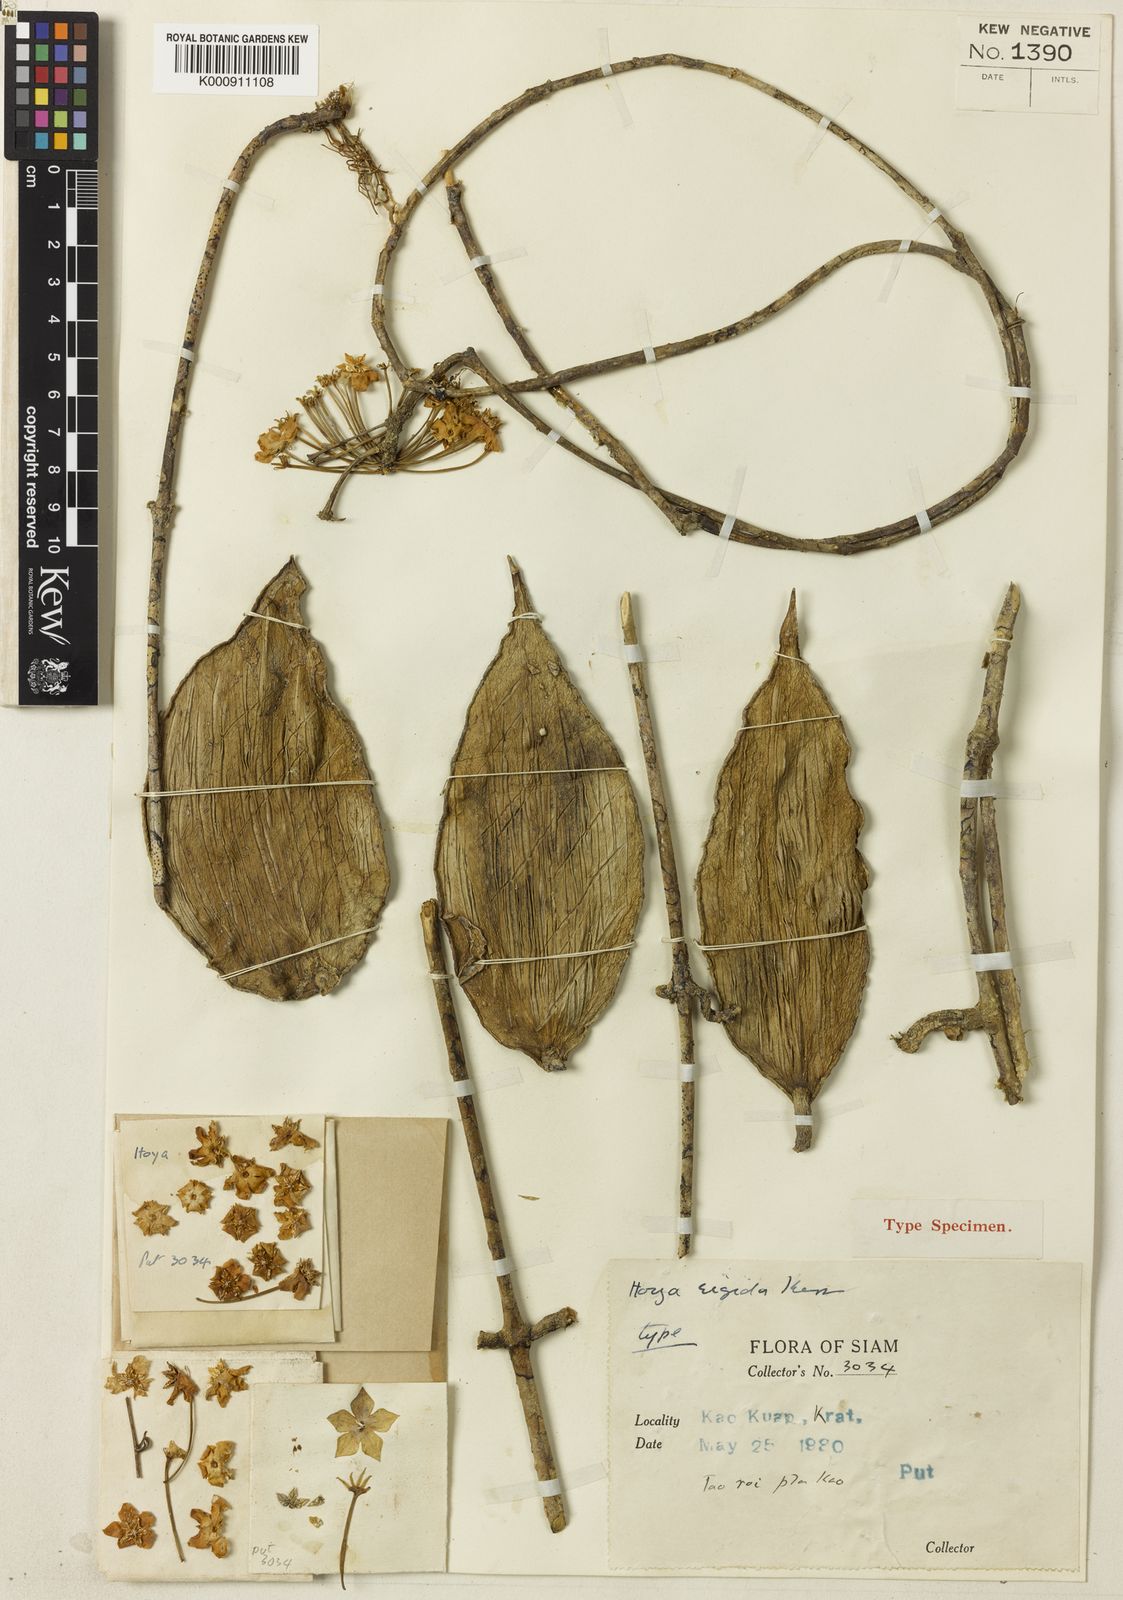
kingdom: Plantae
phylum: Tracheophyta
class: Magnoliopsida
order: Gentianales
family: Apocynaceae
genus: Hoya
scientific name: Hoya rigida
